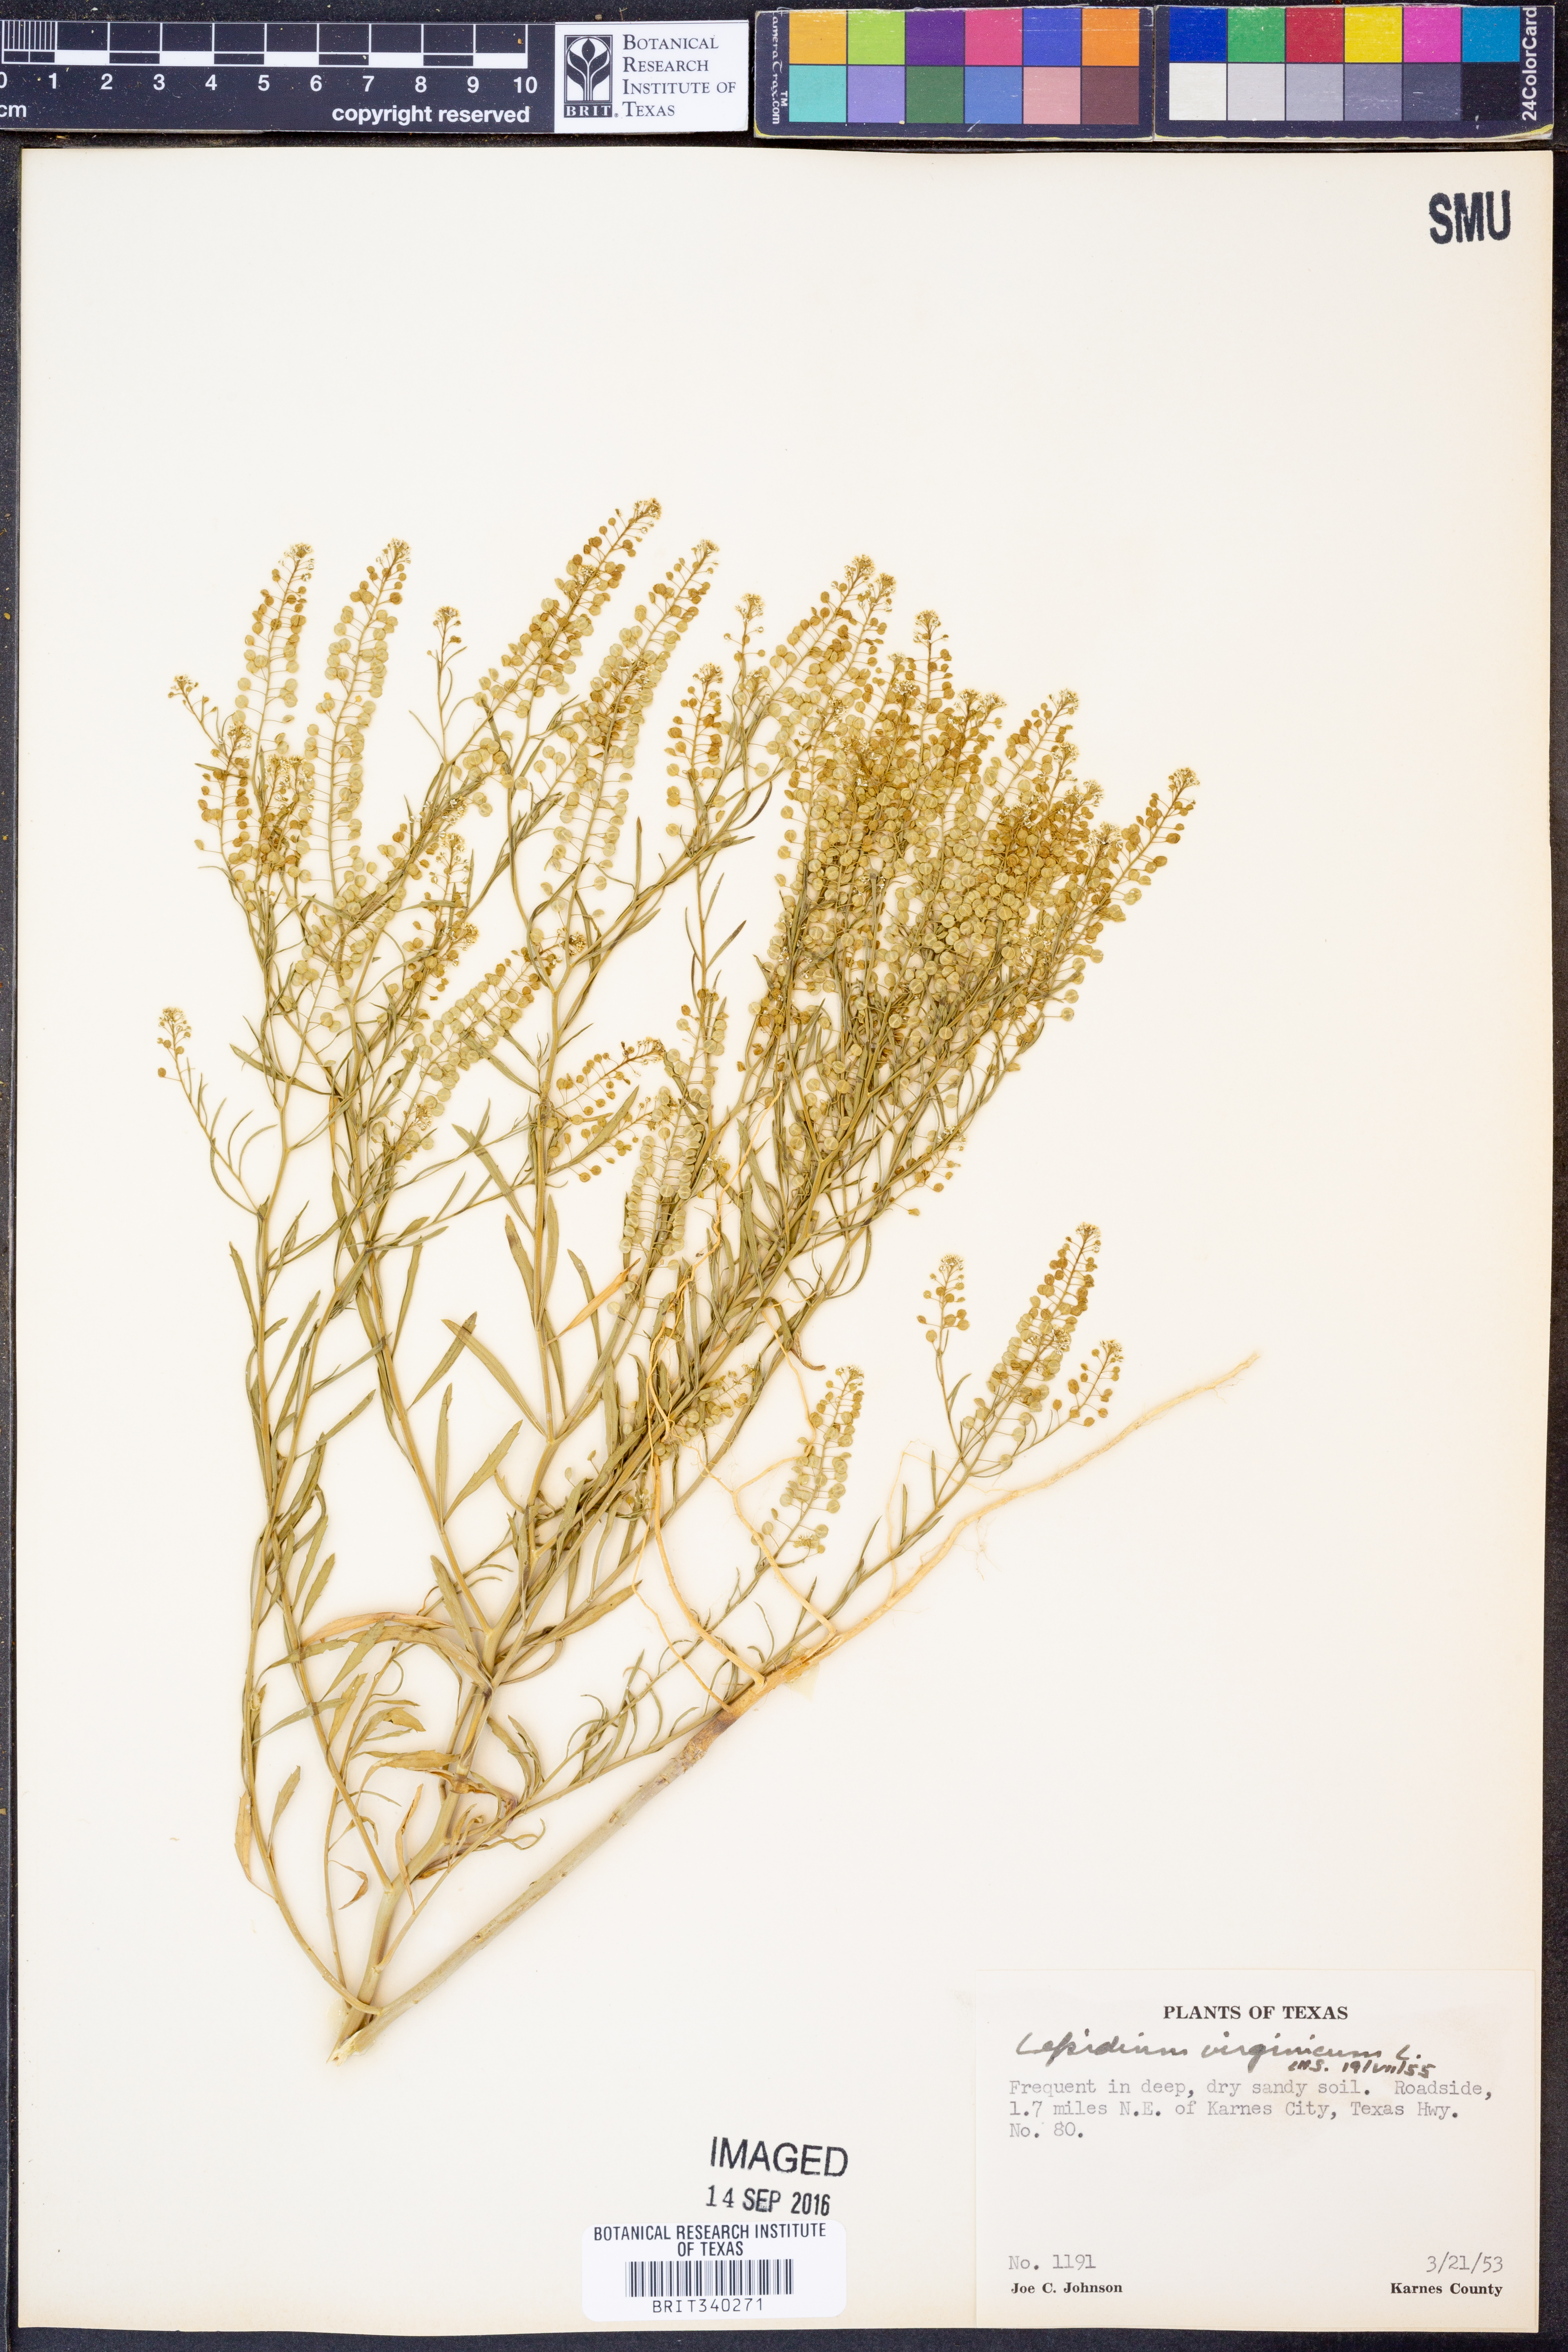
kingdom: Plantae
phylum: Tracheophyta
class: Magnoliopsida
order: Brassicales
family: Brassicaceae
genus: Lepidium
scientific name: Lepidium virginicum
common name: Least pepperwort
